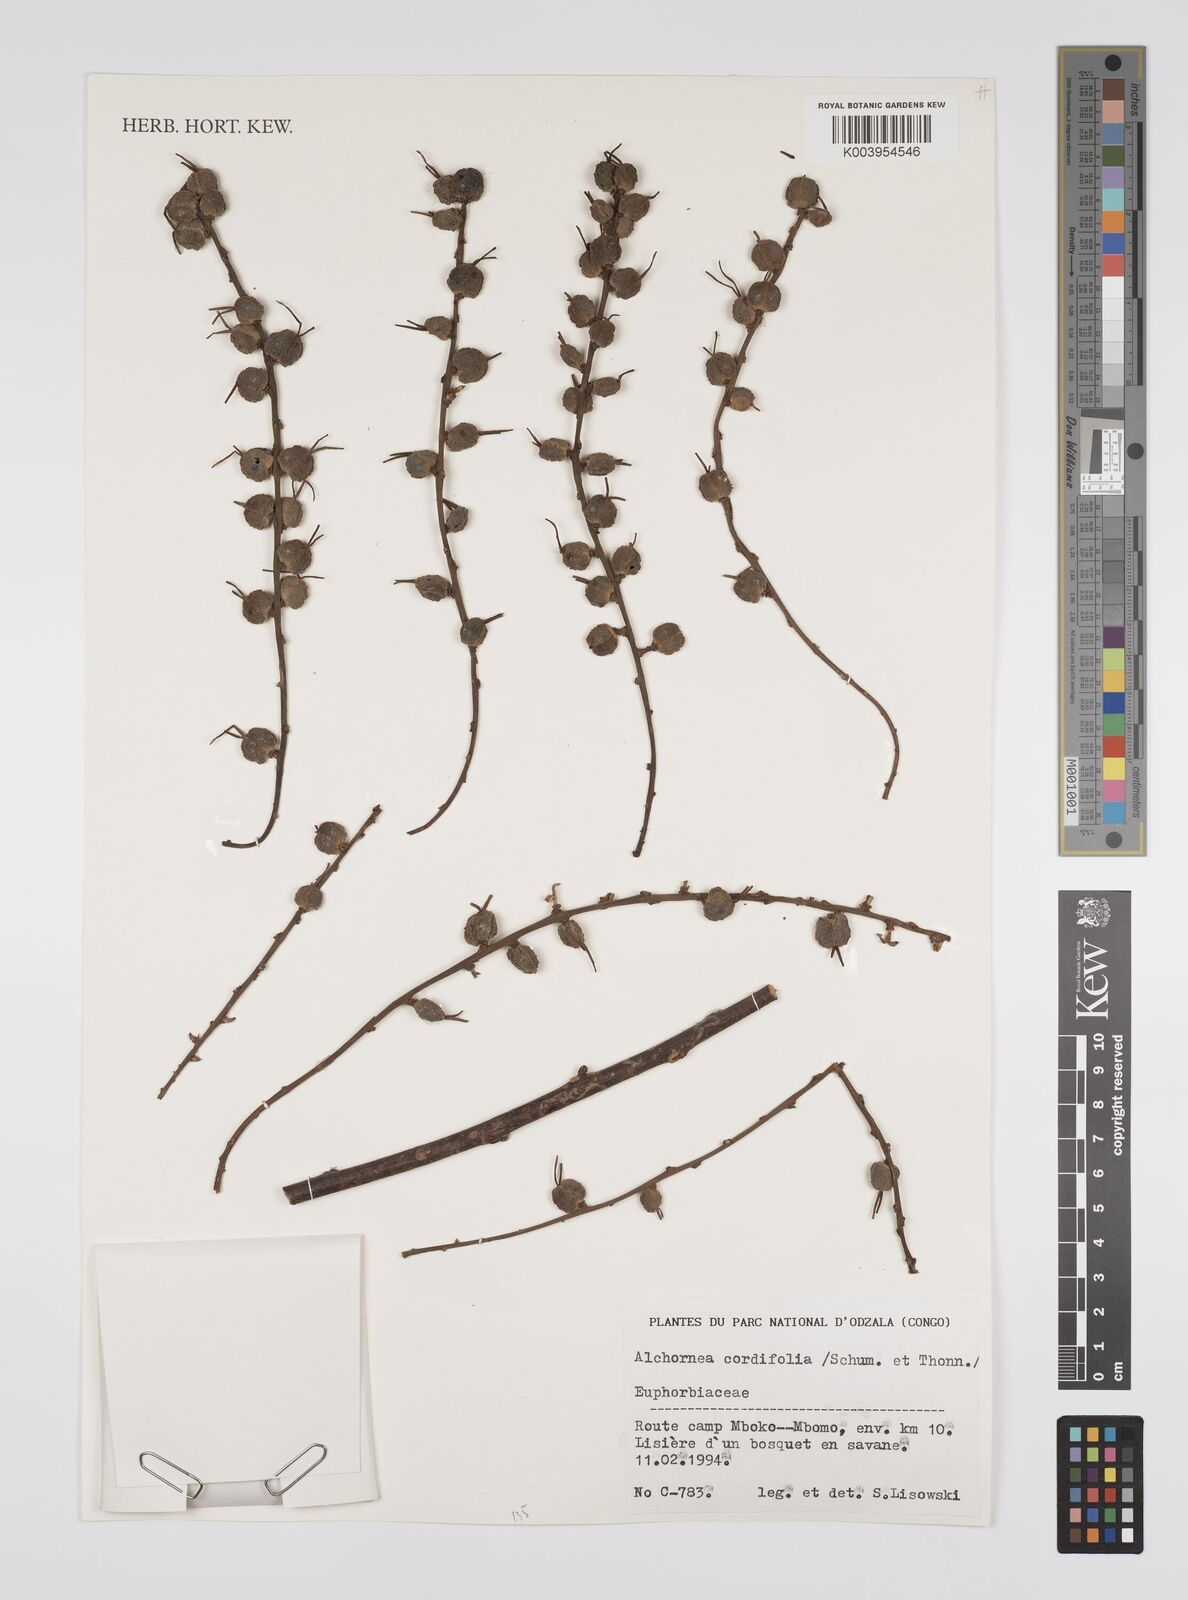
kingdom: Plantae
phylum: Tracheophyta
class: Magnoliopsida
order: Malpighiales
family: Euphorbiaceae
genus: Alchornea
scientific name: Alchornea cordifolia
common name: Christmasbush
